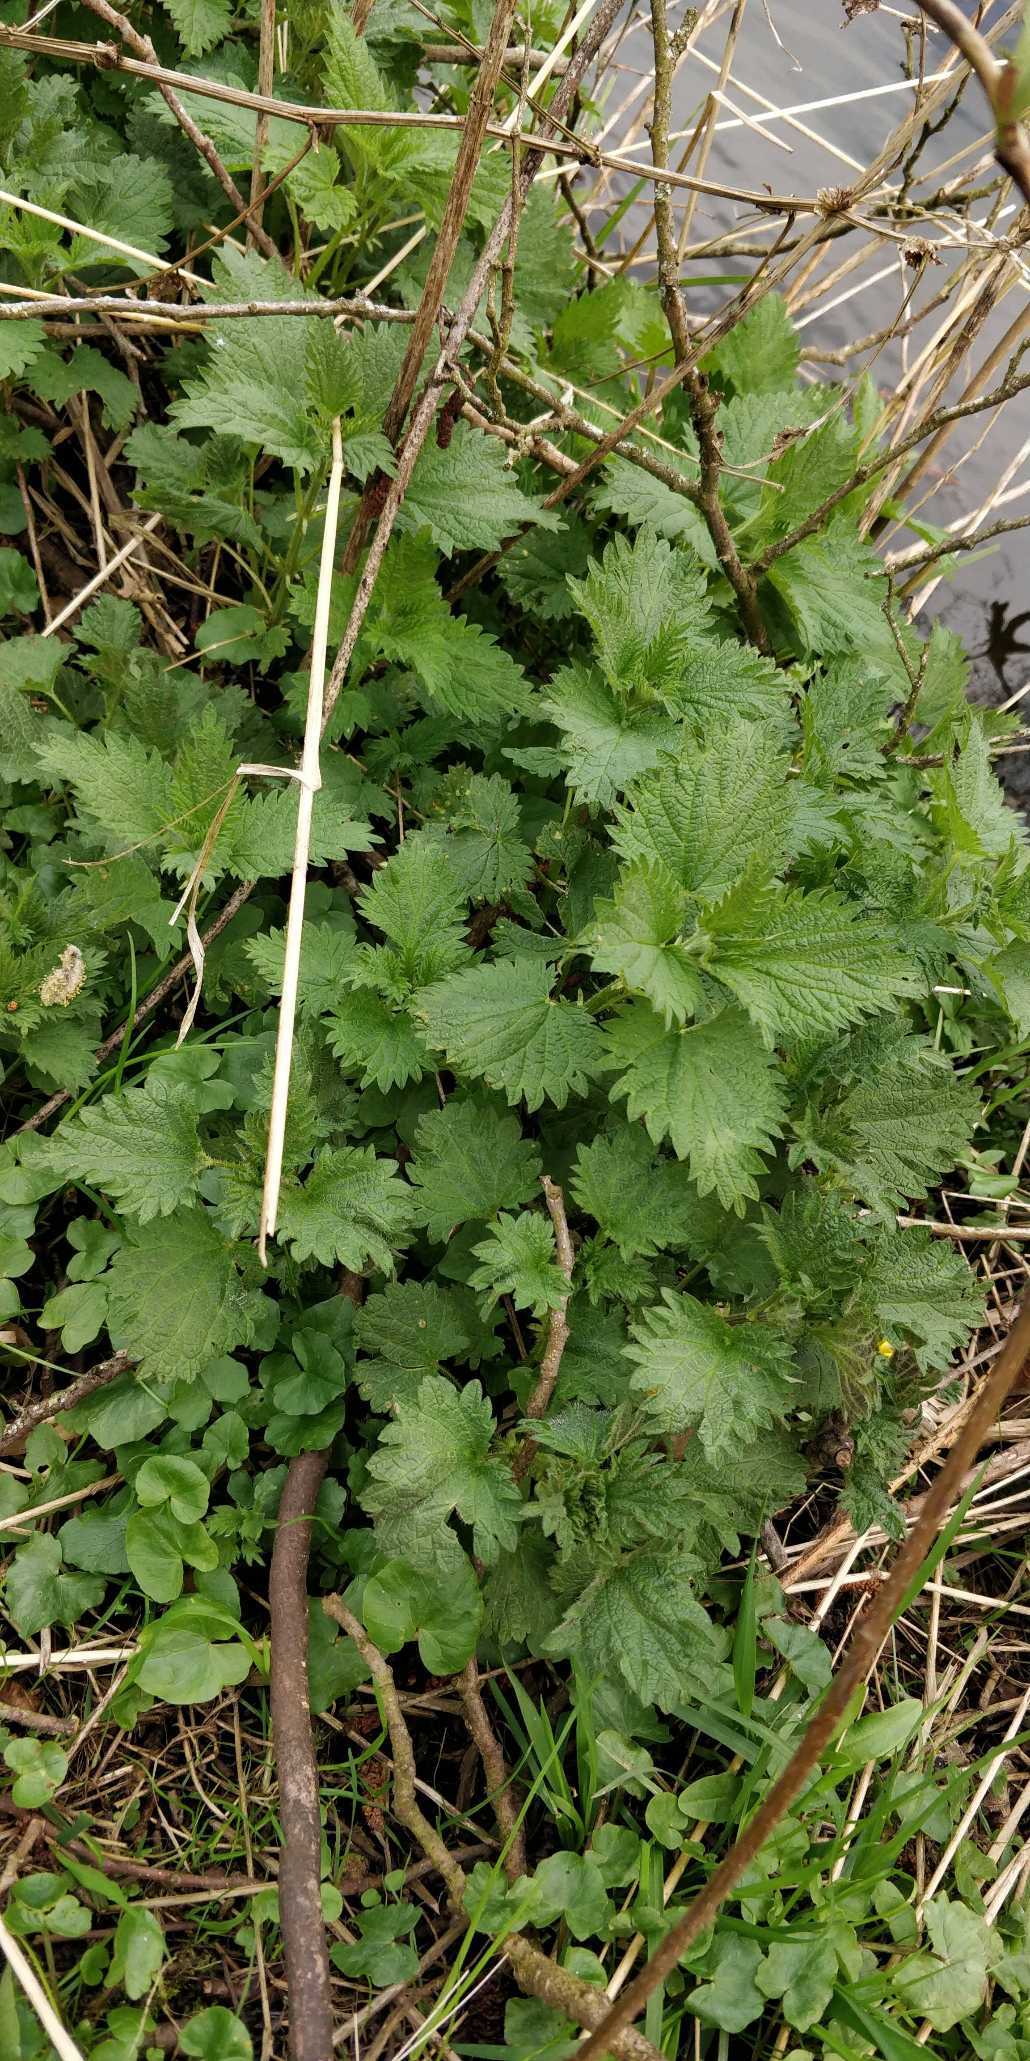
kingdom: Plantae
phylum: Tracheophyta
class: Magnoliopsida
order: Rosales
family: Urticaceae
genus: Urtica
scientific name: Urtica dioica
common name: Stor nælde
